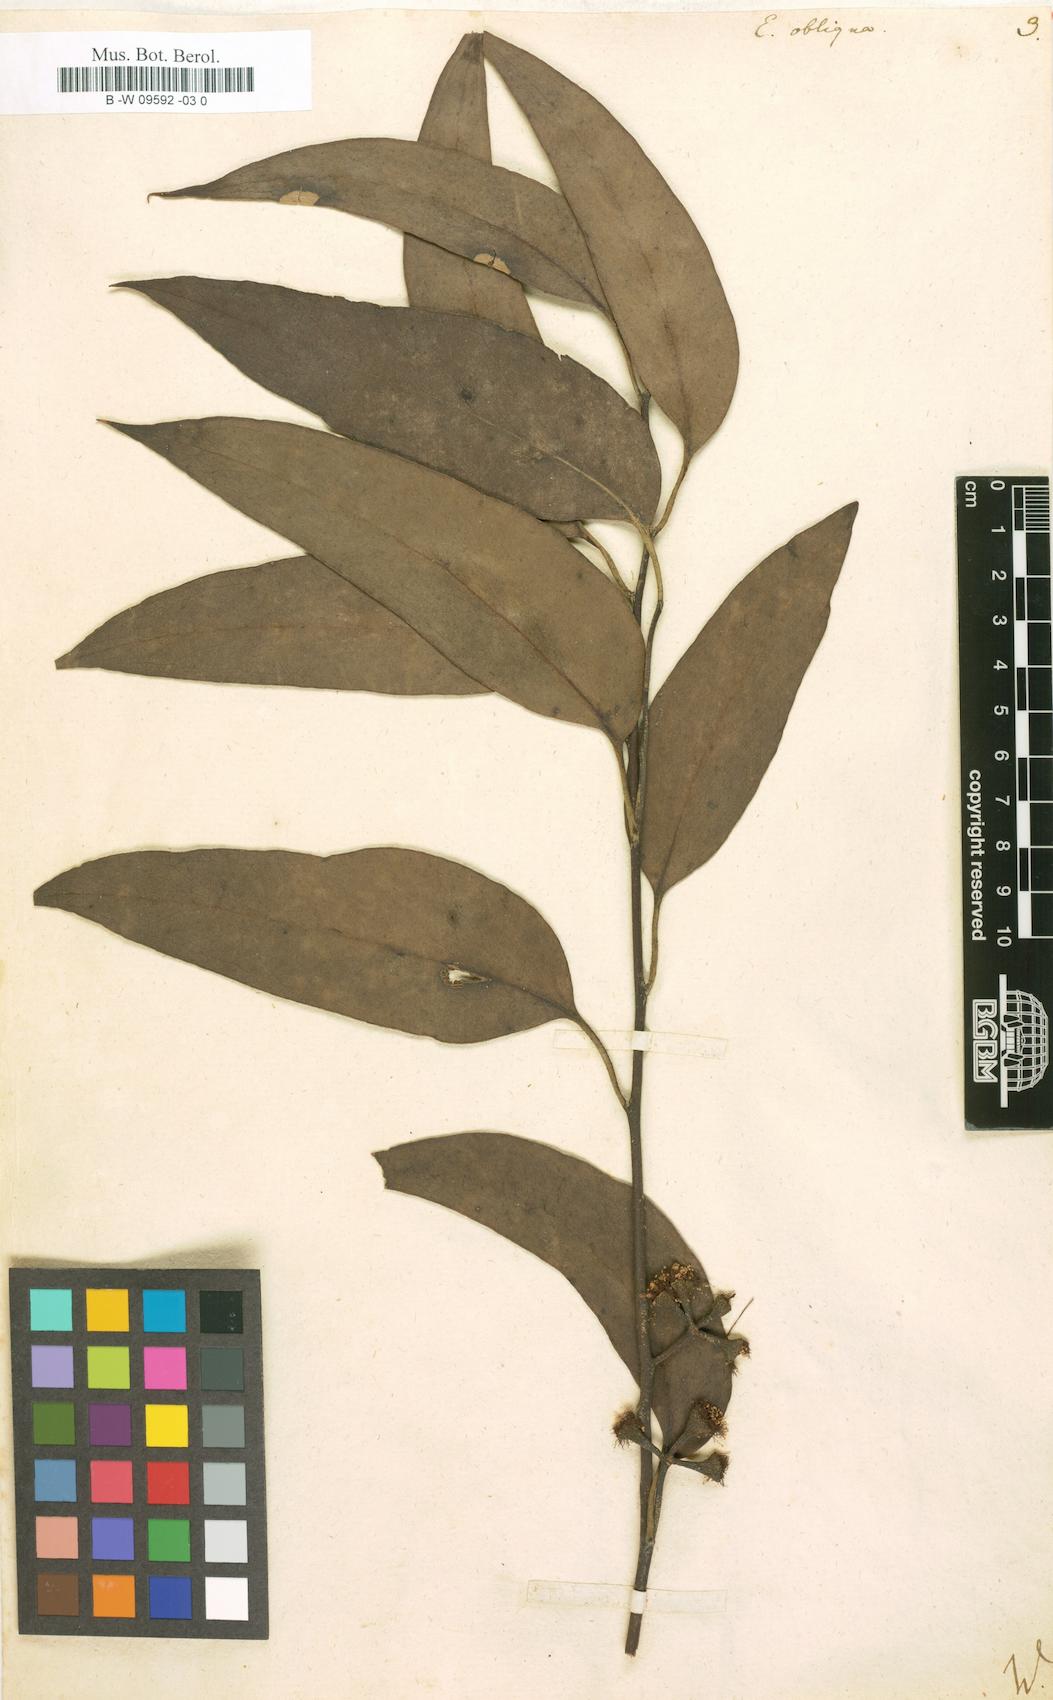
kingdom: Plantae
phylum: Tracheophyta
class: Magnoliopsida
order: Myrtales
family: Myrtaceae
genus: Eucalyptus
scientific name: Eucalyptus obliqua
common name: Messmate stringybark
